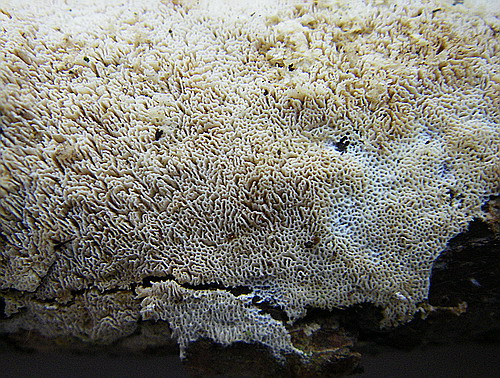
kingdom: Fungi
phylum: Basidiomycota
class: Agaricomycetes
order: Hymenochaetales
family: Schizoporaceae
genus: Xylodon
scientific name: Xylodon subtropicus
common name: labyrint-tandsvamp
